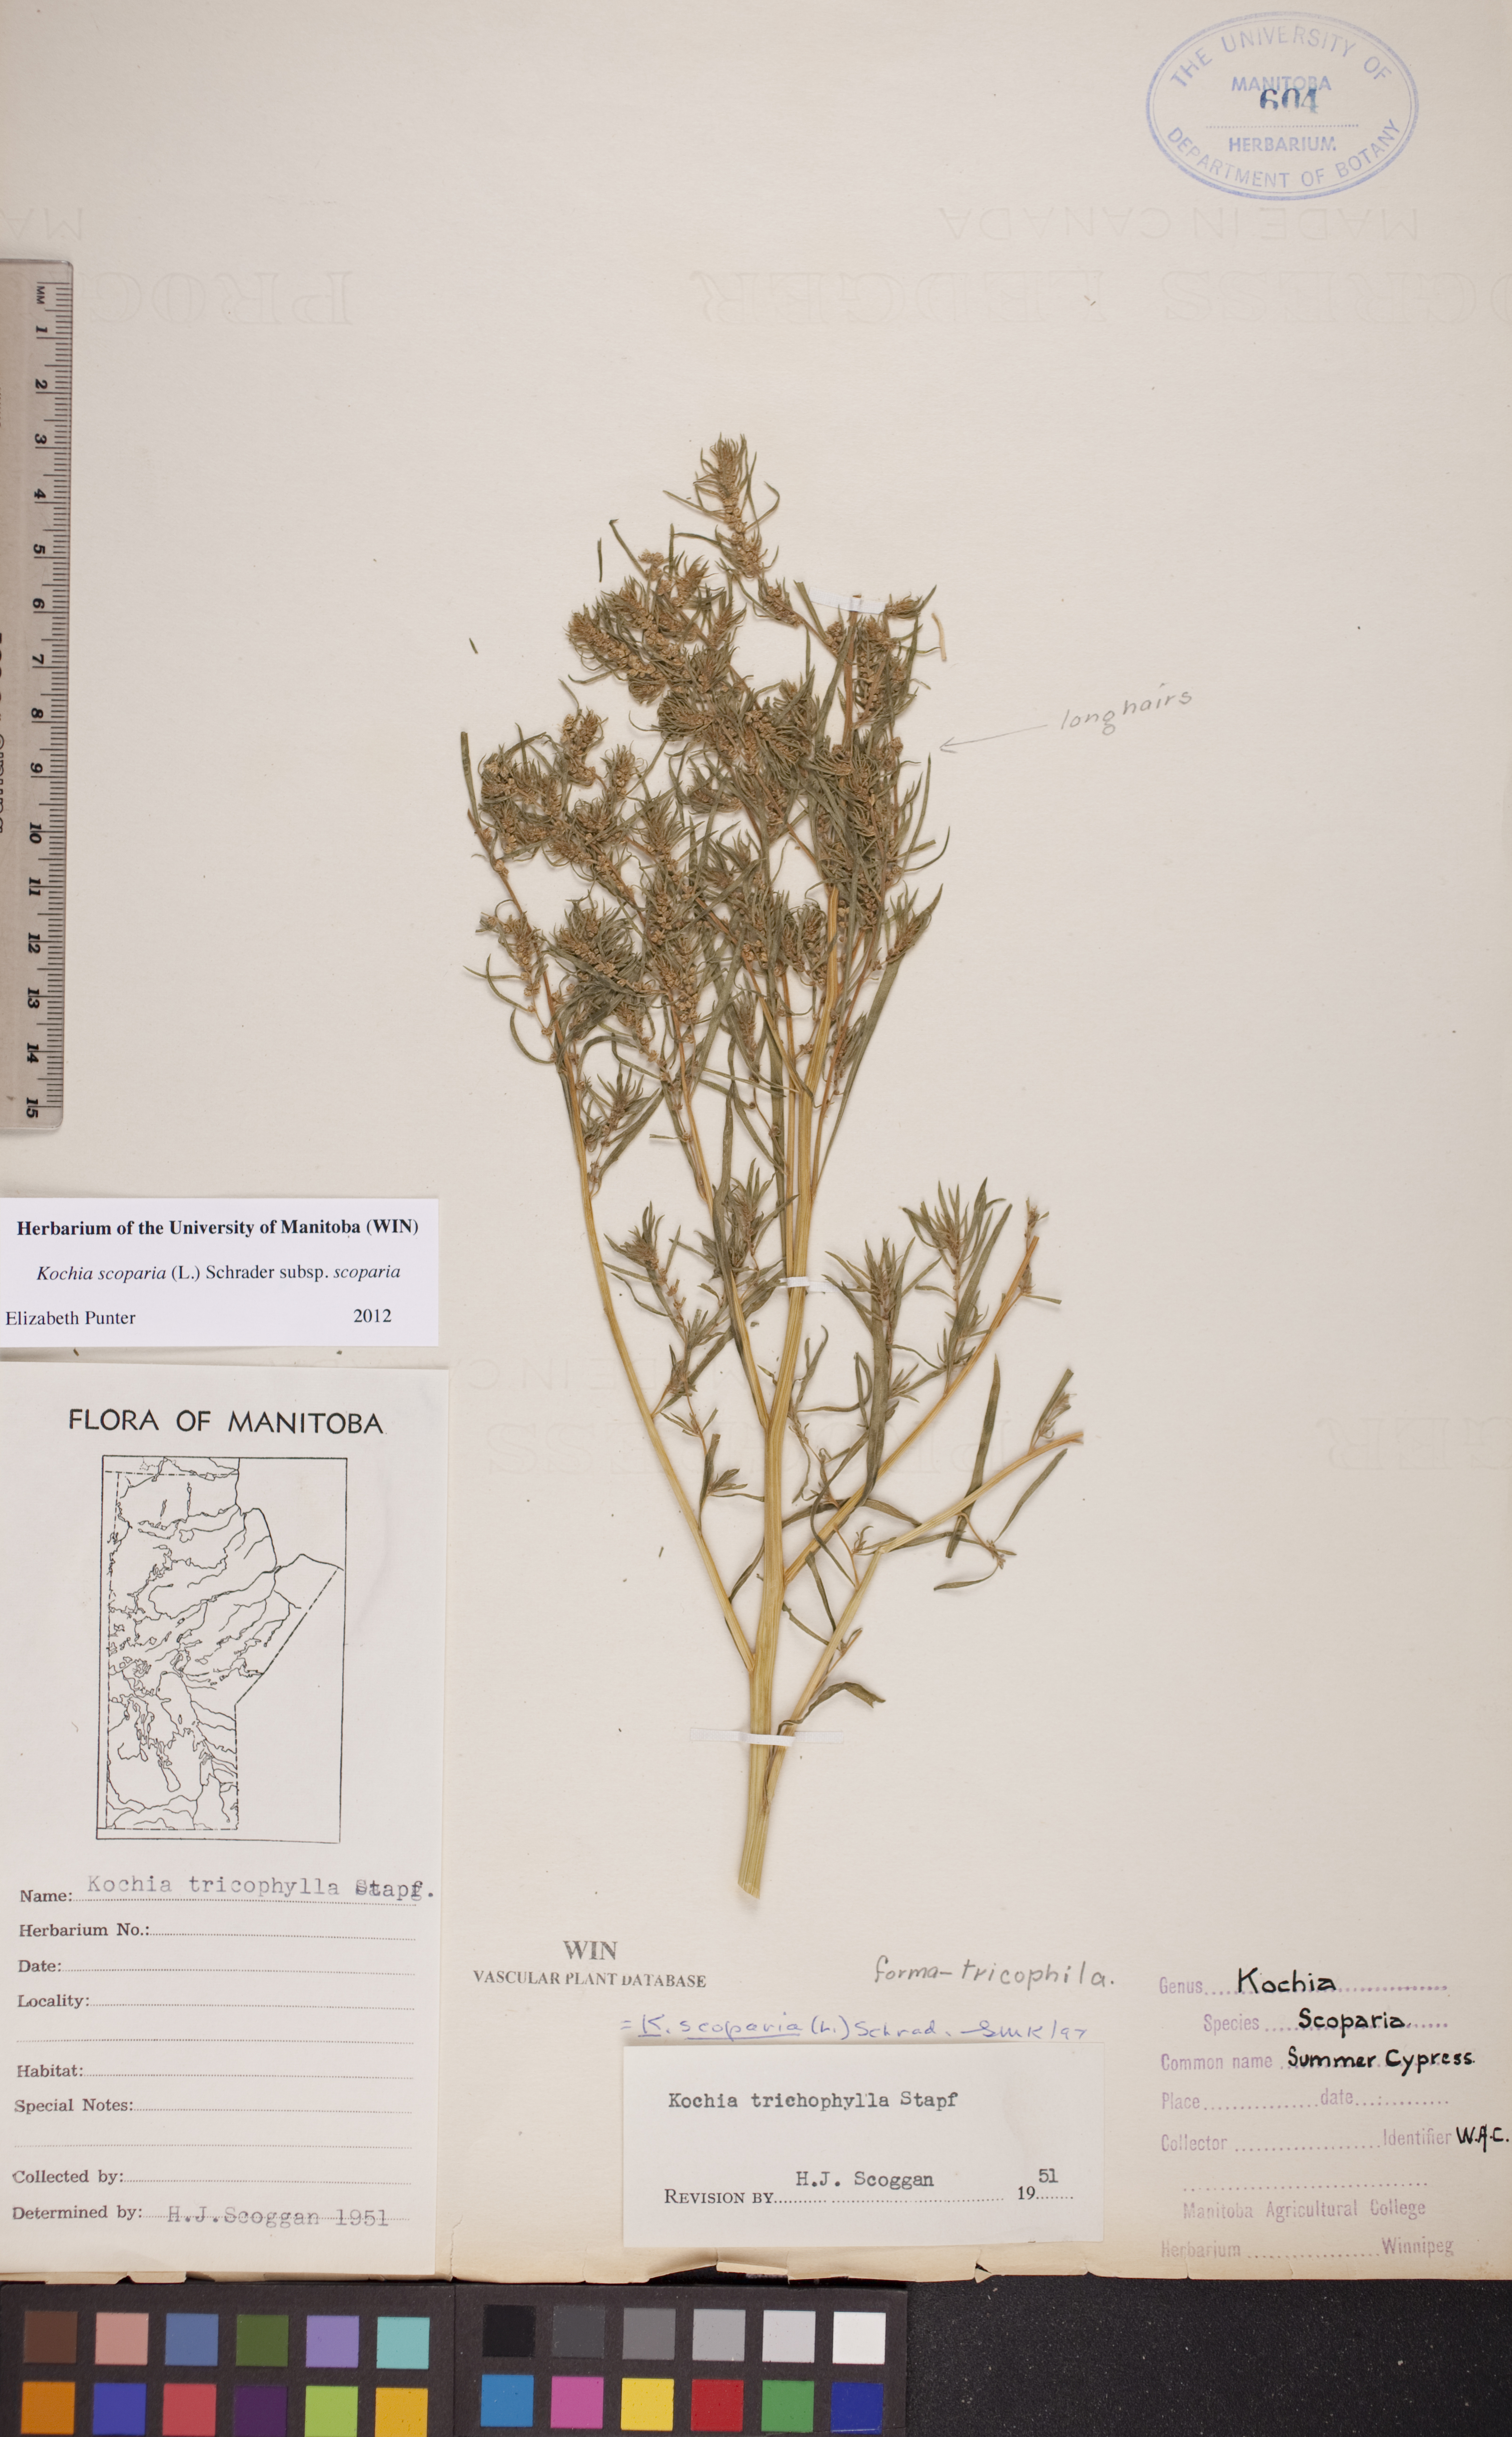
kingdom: Plantae
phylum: Tracheophyta
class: Magnoliopsida
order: Caryophyllales
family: Amaranthaceae
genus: Bassia
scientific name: Bassia scoparia
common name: Belvedere
